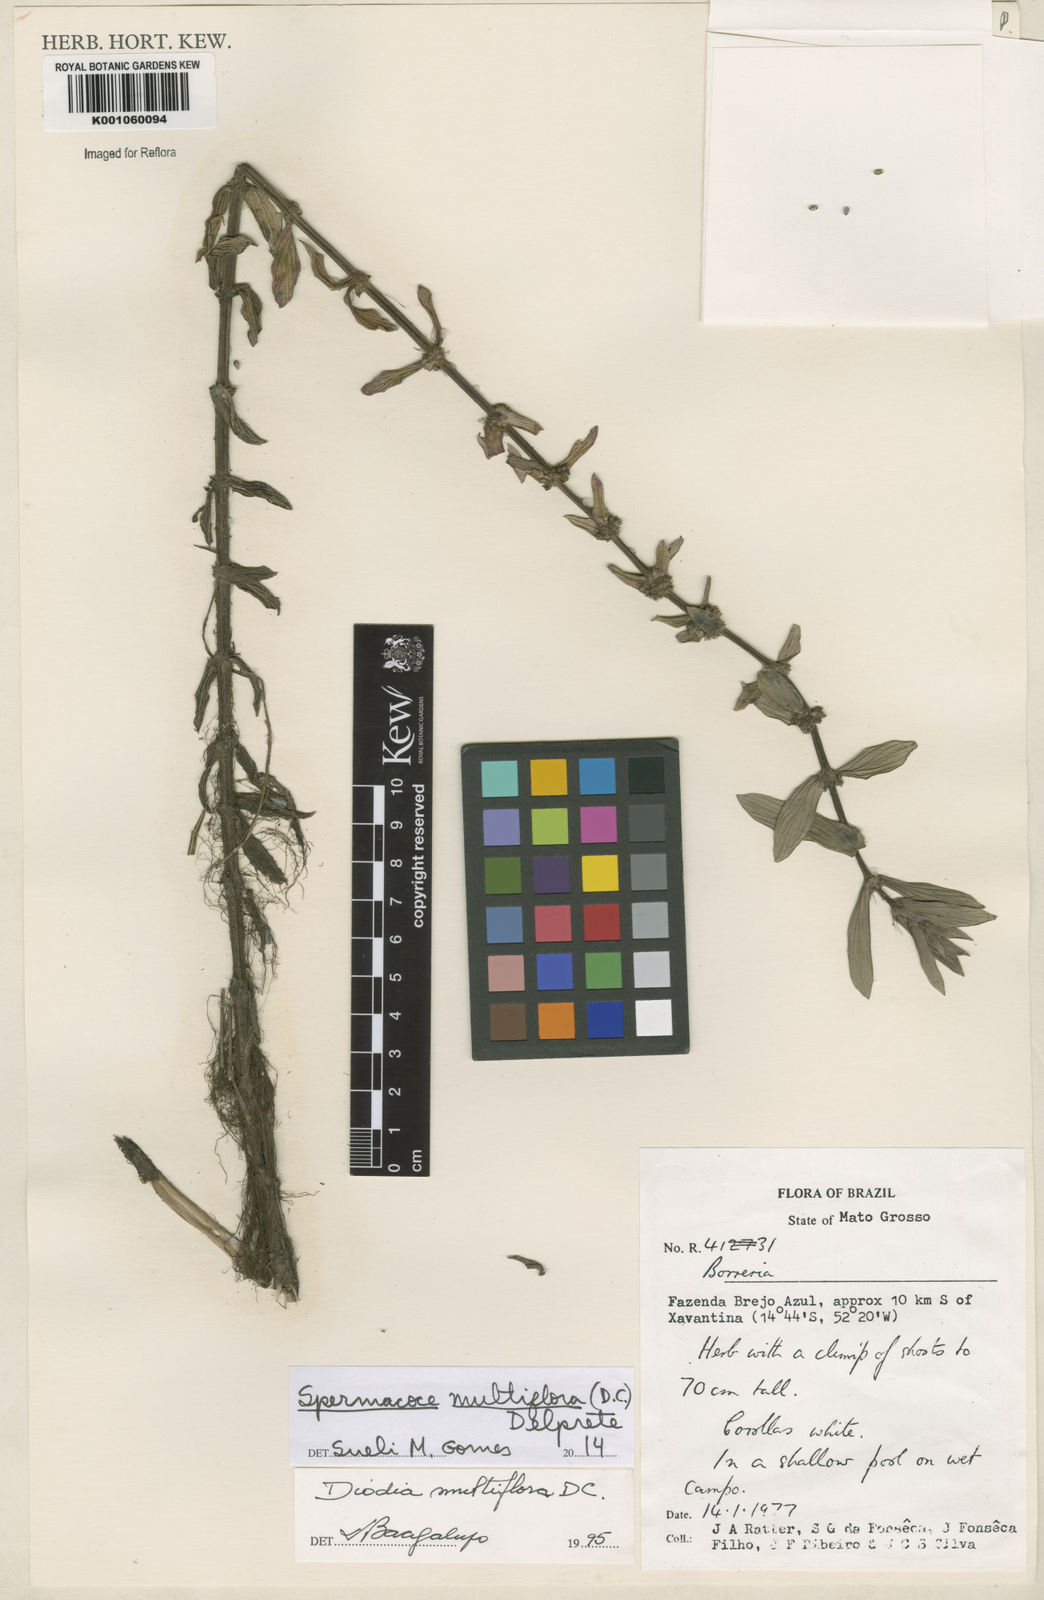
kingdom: Plantae
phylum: Tracheophyta
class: Magnoliopsida
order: Gentianales
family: Rubiaceae
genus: Spermacoce
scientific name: Spermacoce multiflora
